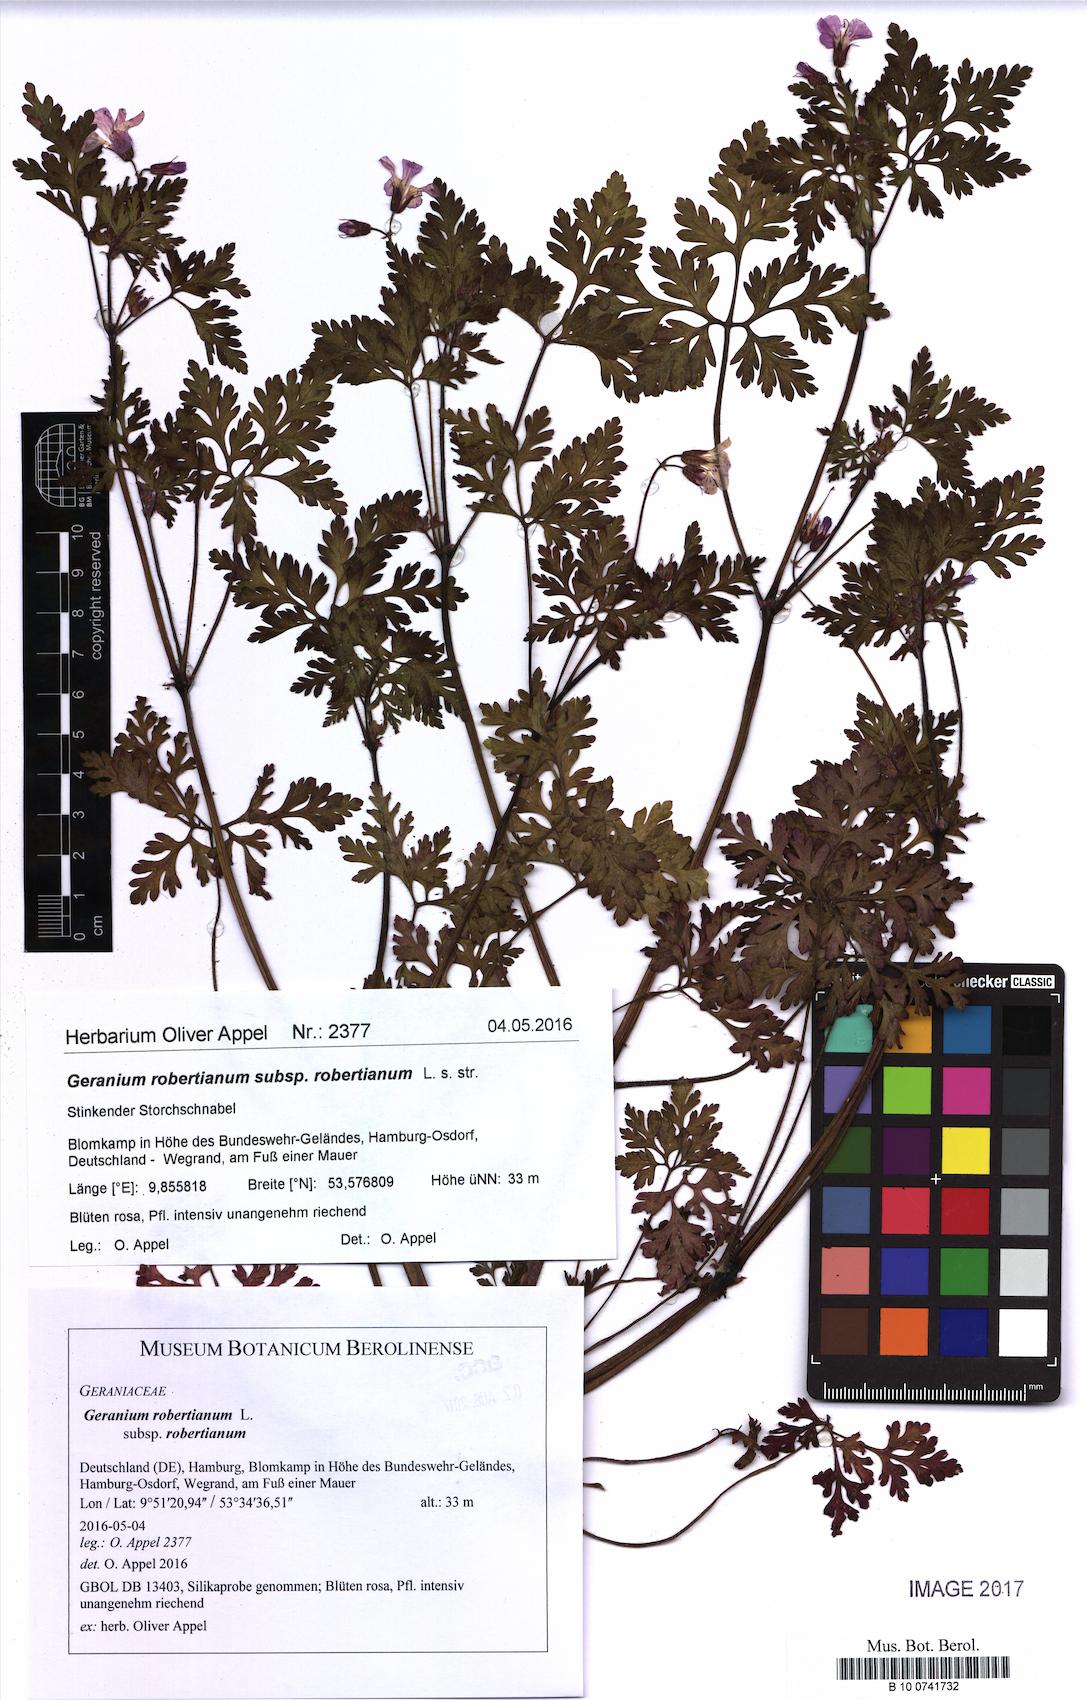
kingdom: Plantae
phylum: Tracheophyta
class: Magnoliopsida
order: Geraniales
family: Geraniaceae
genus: Geranium
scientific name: Geranium robertianum
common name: Herb-robert
